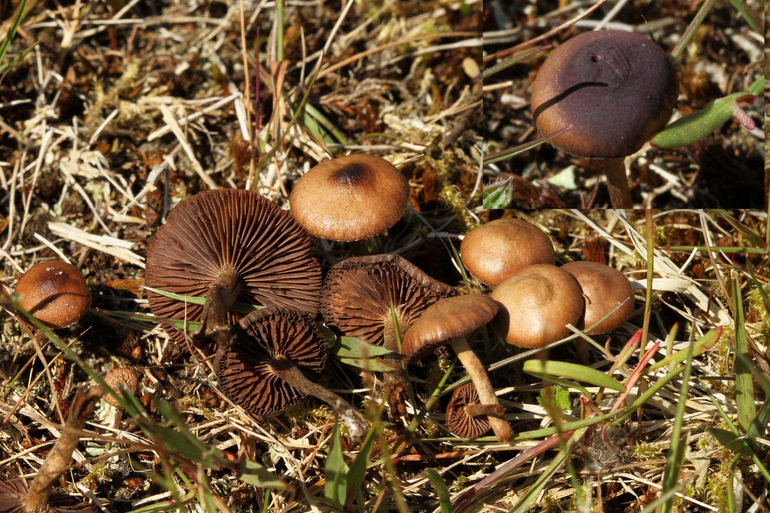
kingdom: Fungi
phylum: Basidiomycota
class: Agaricomycetes
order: Agaricales
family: Strophariaceae
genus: Deconica
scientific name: Deconica montana
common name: rødbrun stråhat
